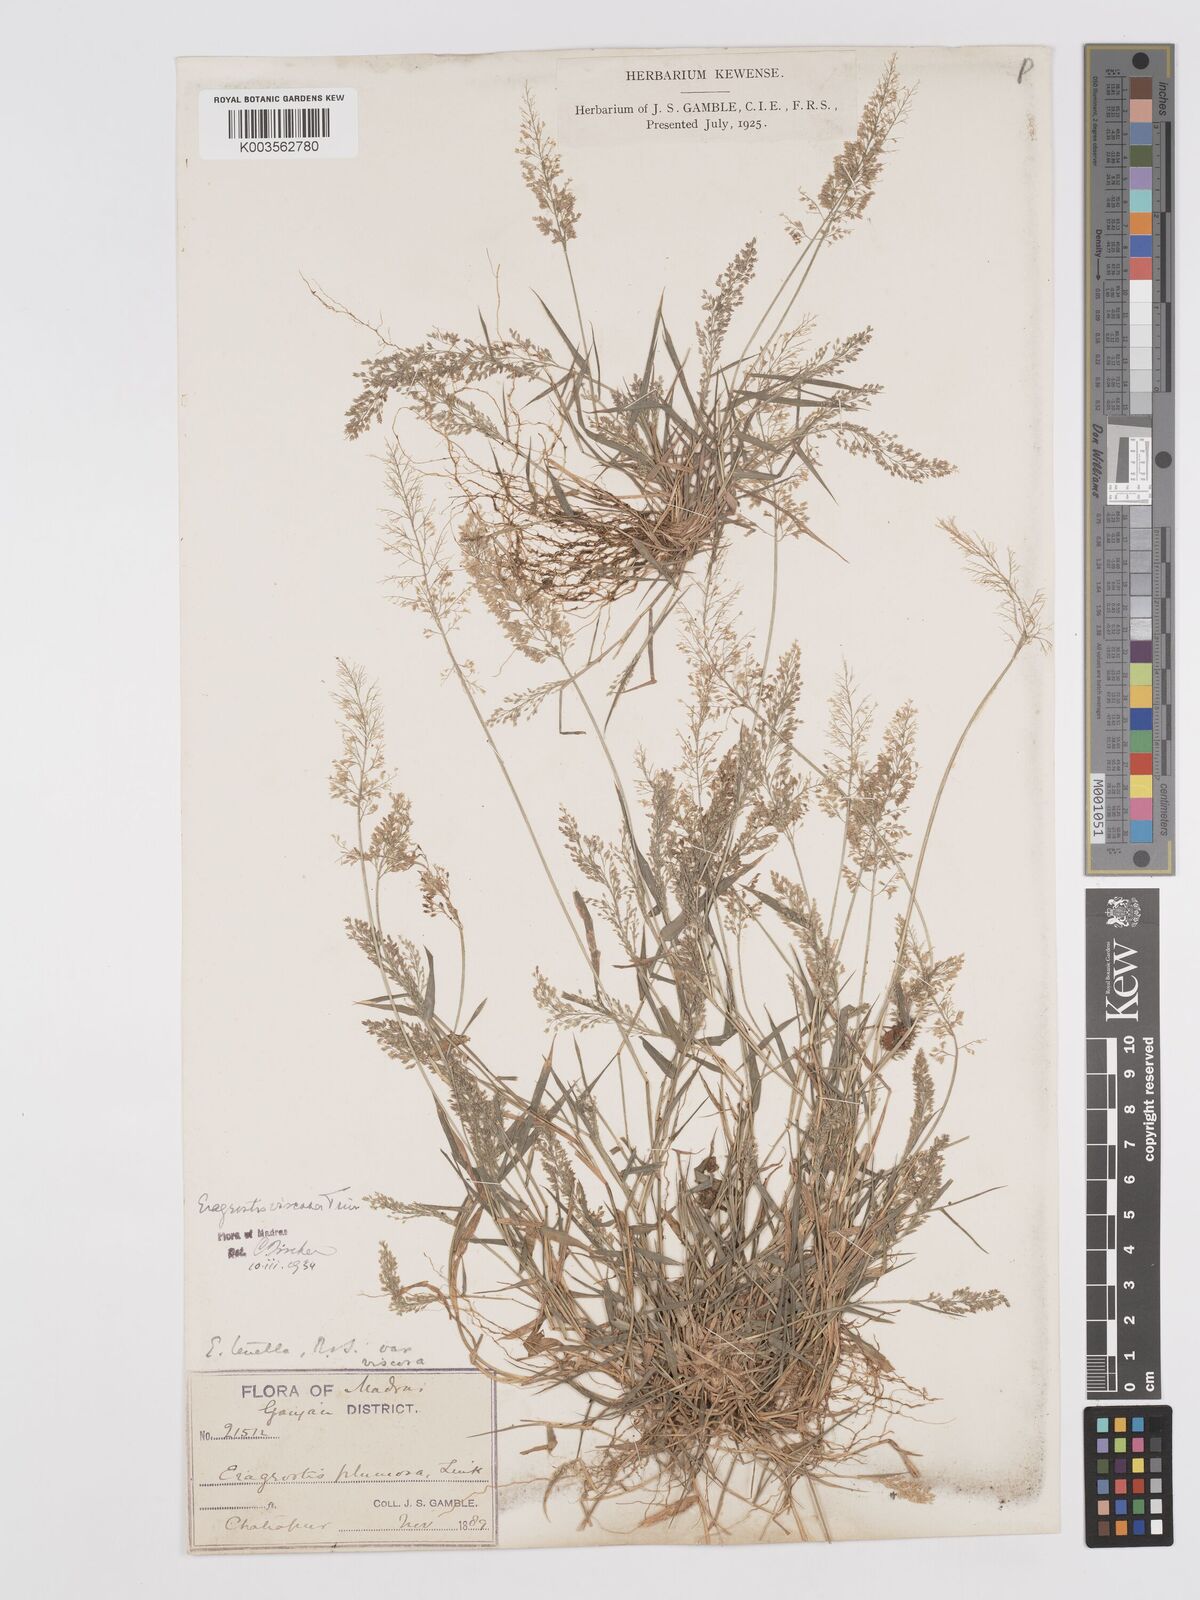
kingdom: Plantae
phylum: Tracheophyta
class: Liliopsida
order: Poales
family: Poaceae
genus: Eragrostis
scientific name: Eragrostis viscosa
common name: Sticky love grass
